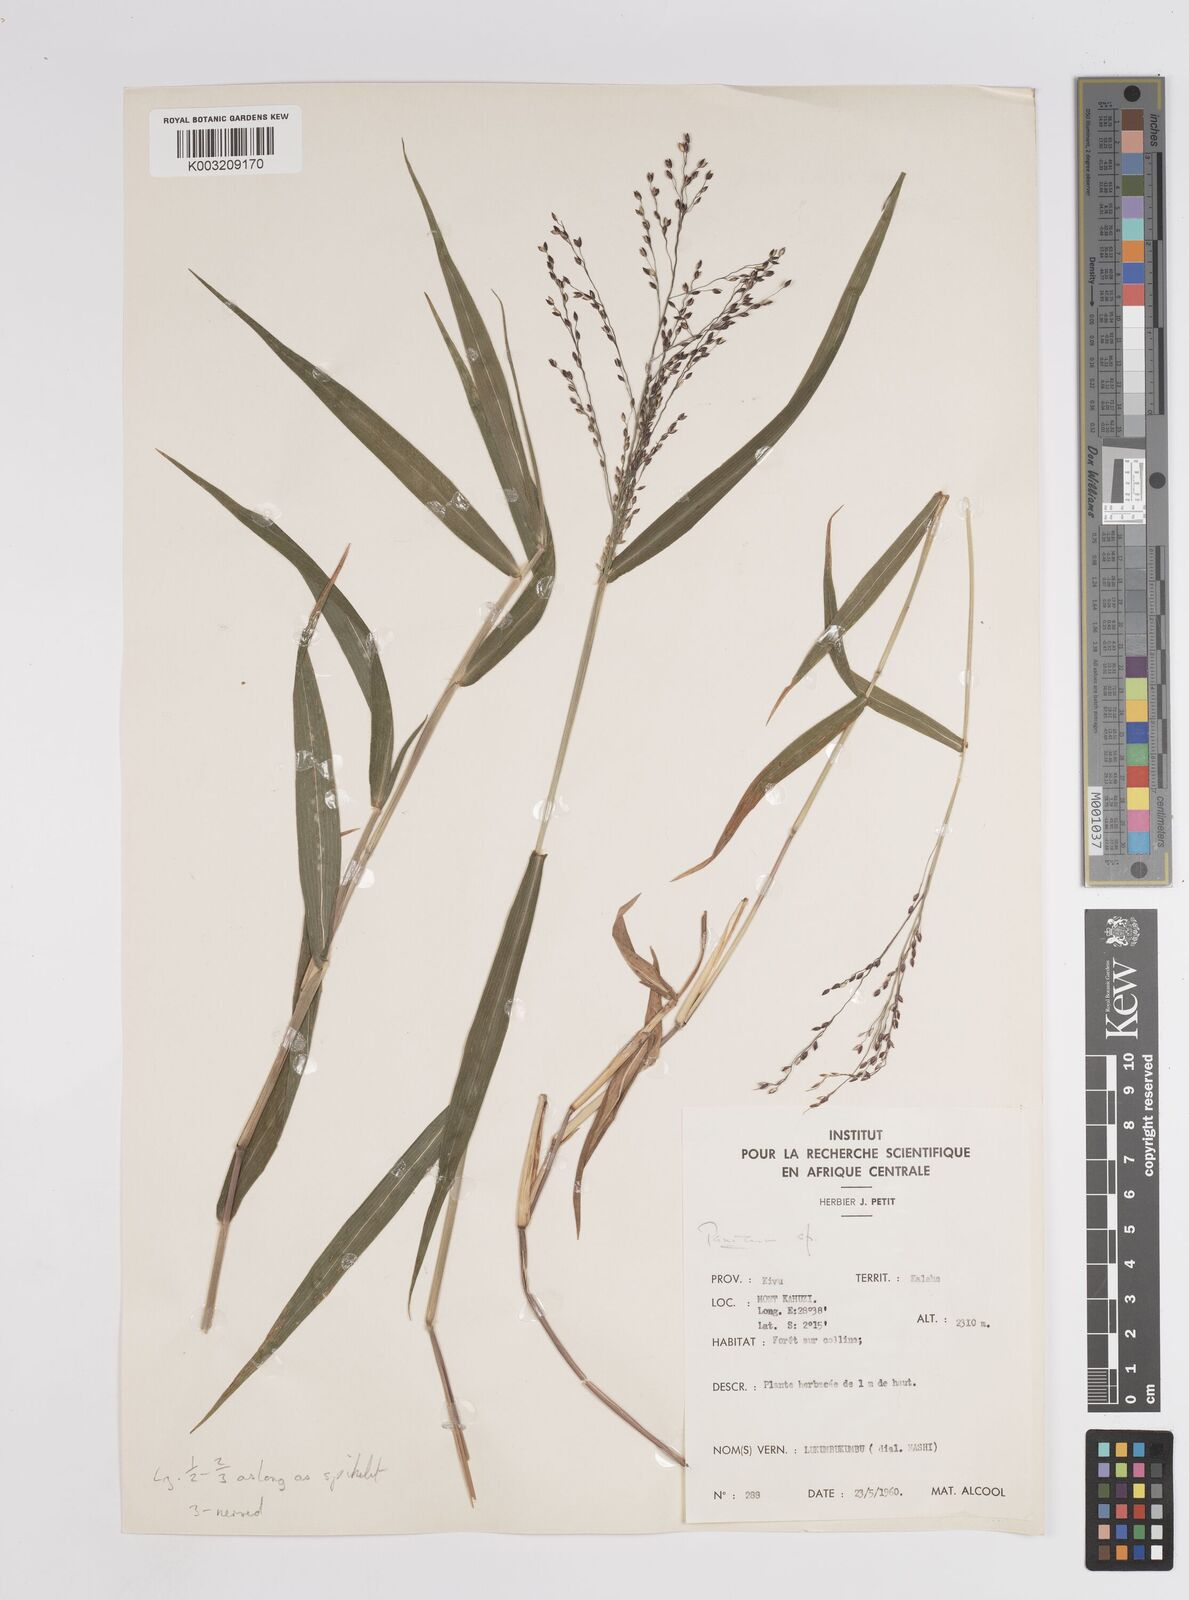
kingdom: Plantae
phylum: Tracheophyta
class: Liliopsida
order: Poales
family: Poaceae
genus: Panicum
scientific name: Panicum
